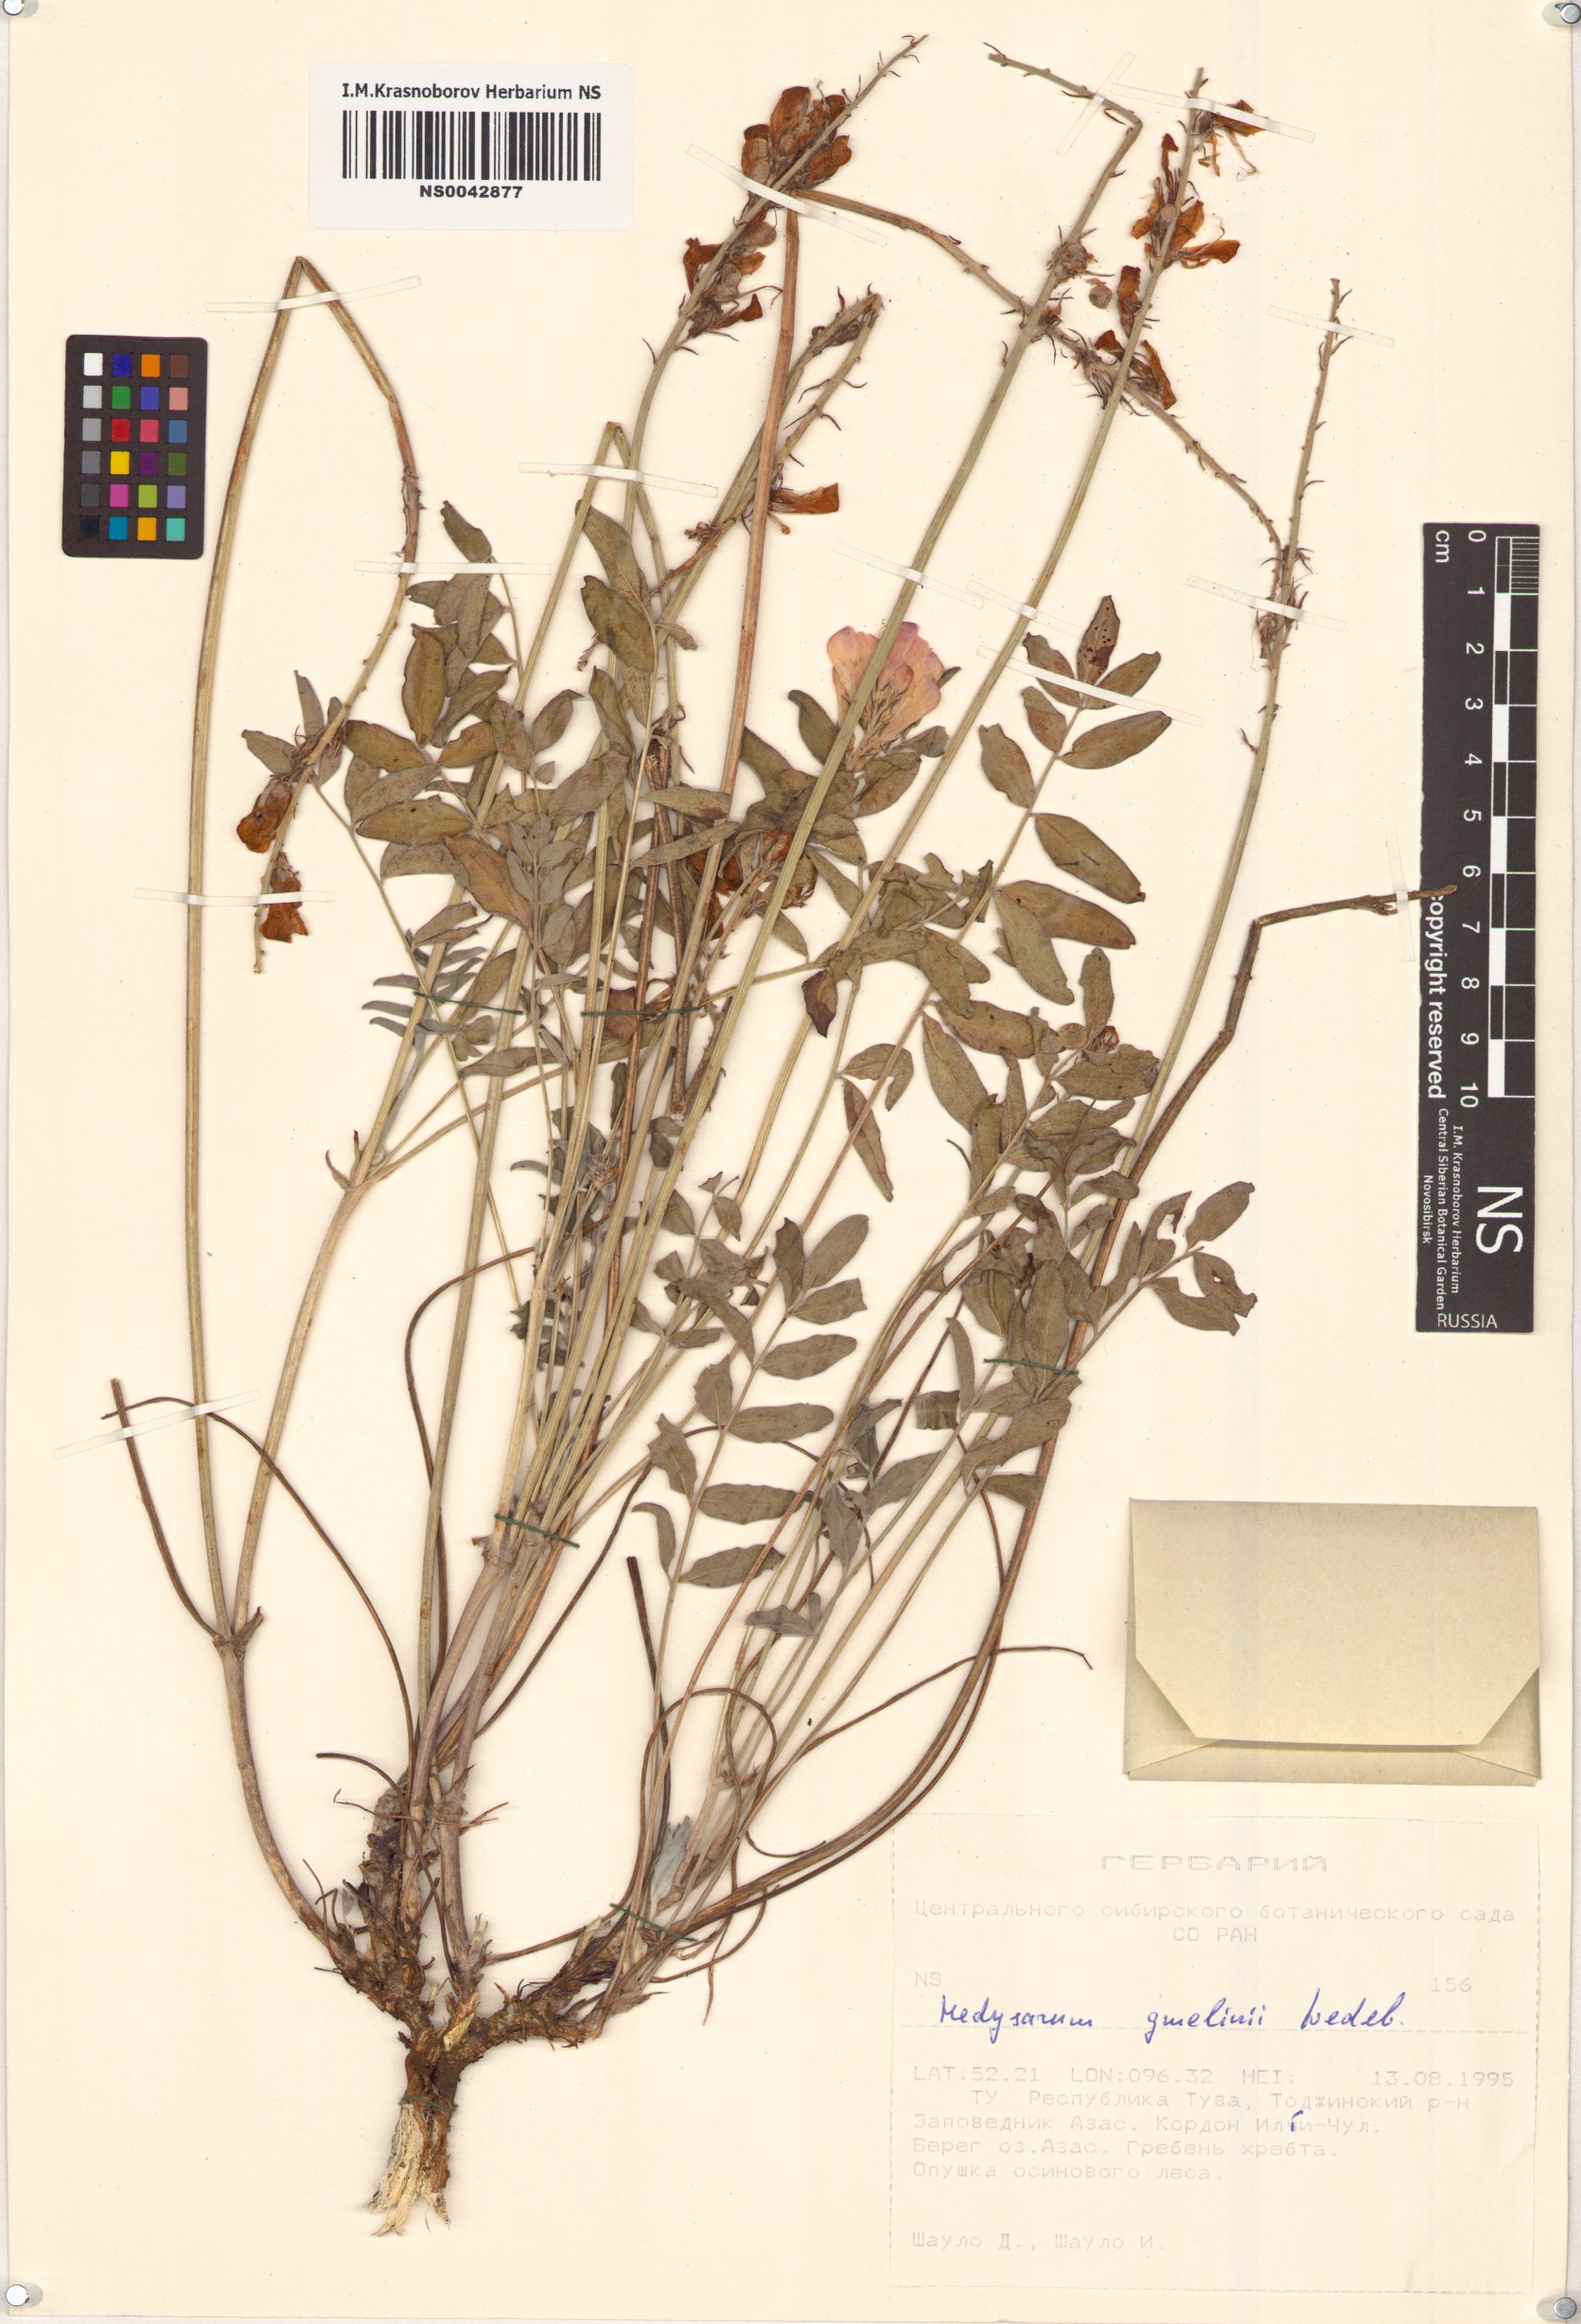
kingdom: Plantae
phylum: Tracheophyta
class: Magnoliopsida
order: Fabales
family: Fabaceae
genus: Hedysarum
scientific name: Hedysarum gmelinii
